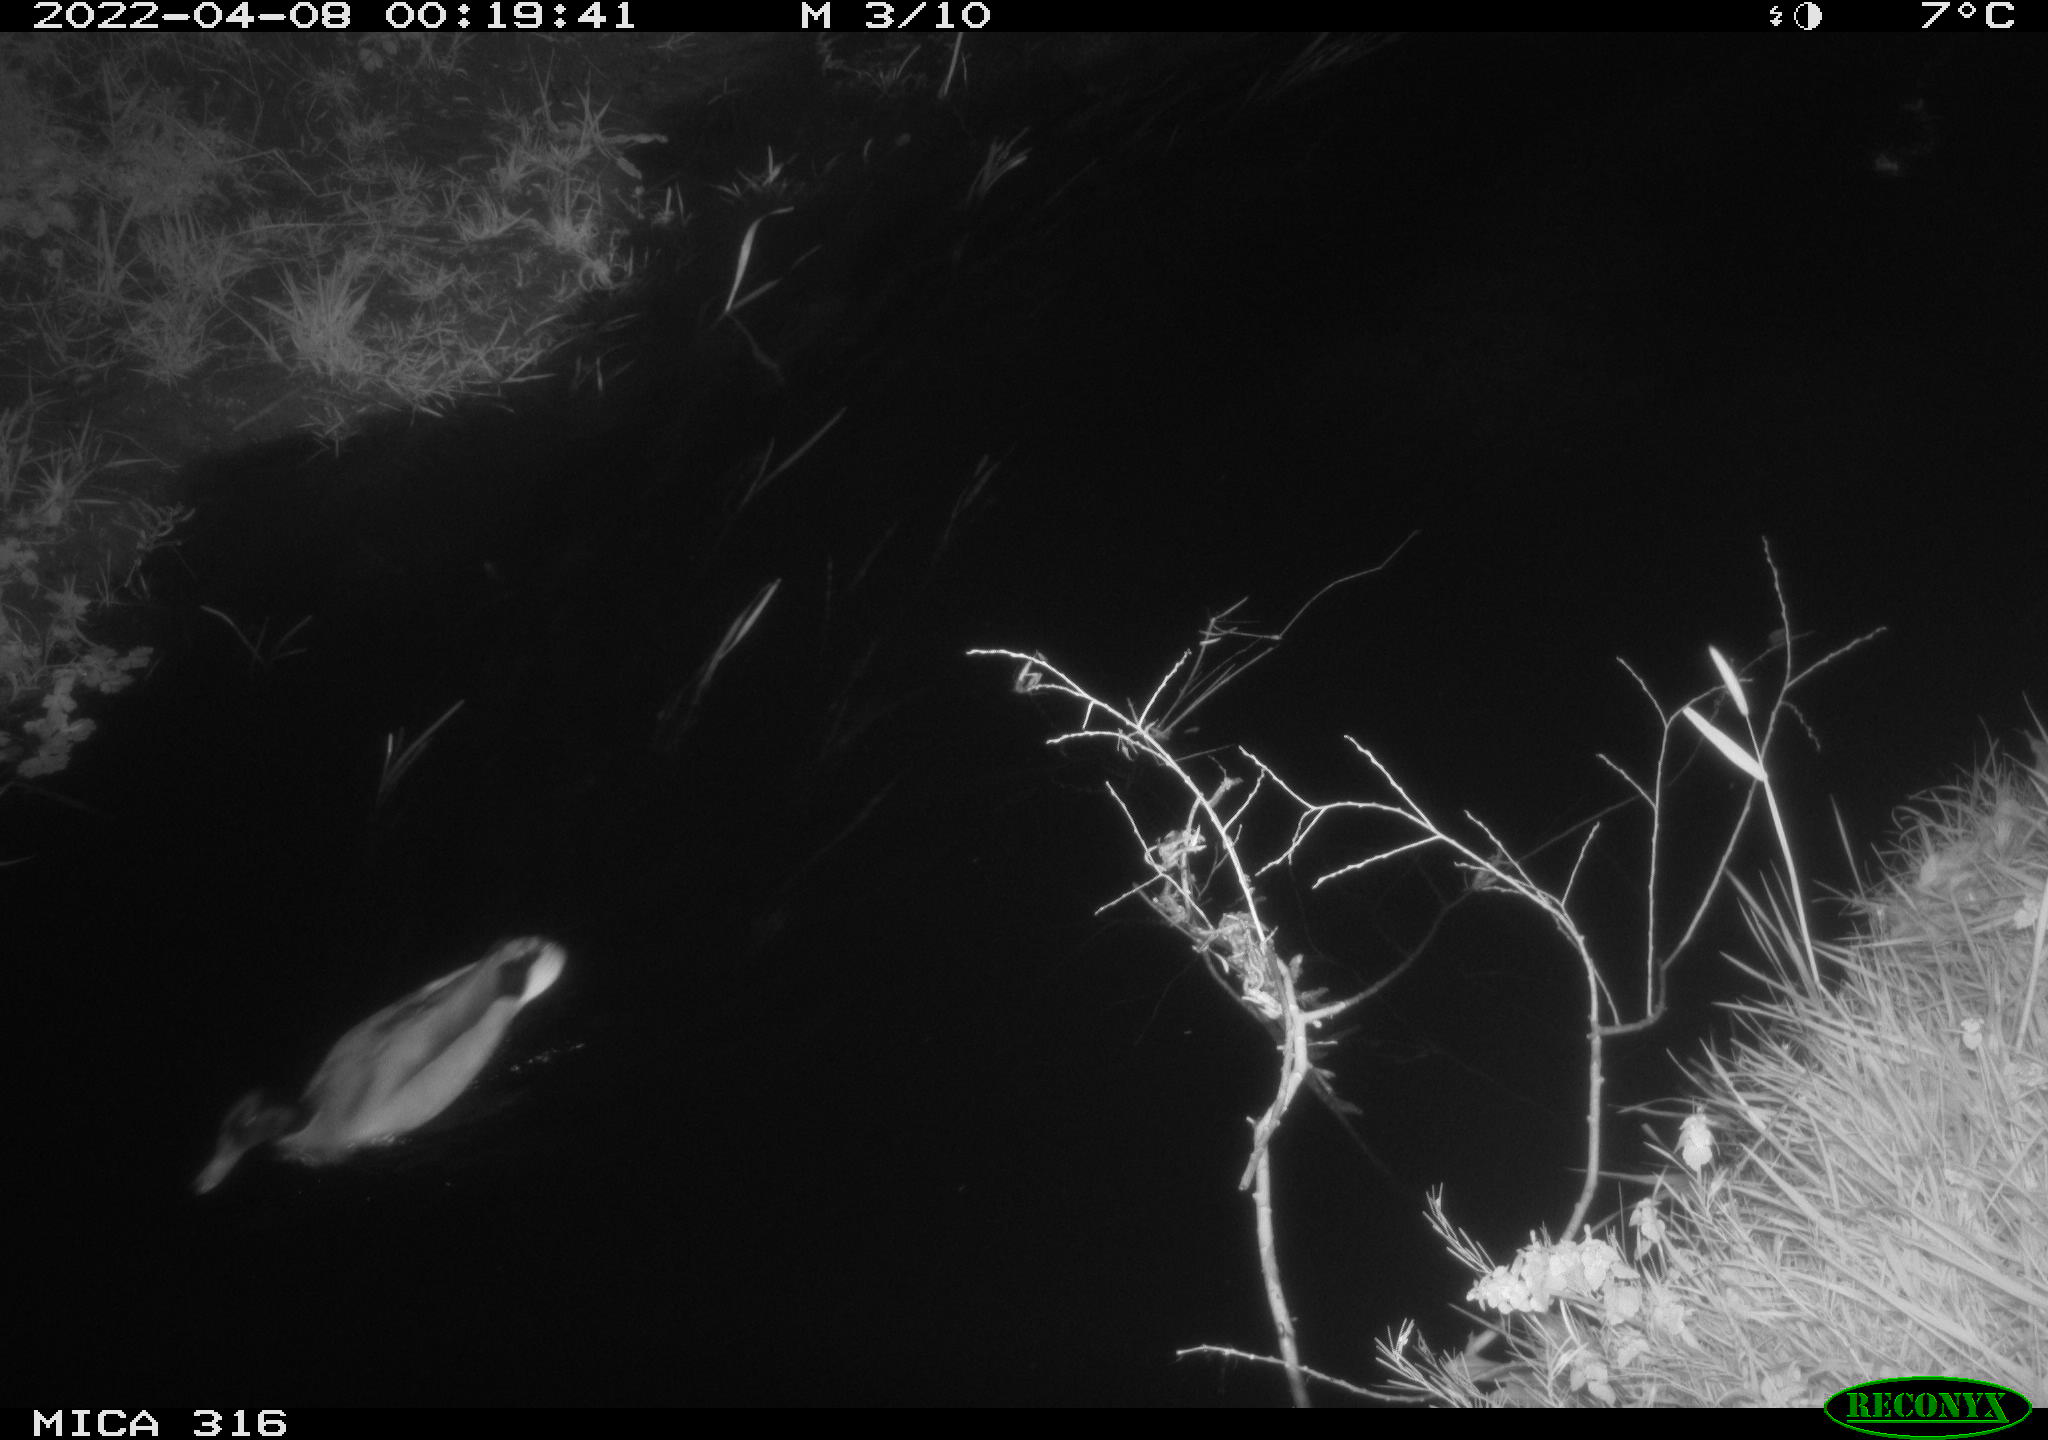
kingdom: Animalia
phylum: Chordata
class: Aves
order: Anseriformes
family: Anatidae
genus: Anas
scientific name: Anas platyrhynchos
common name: Mallard
